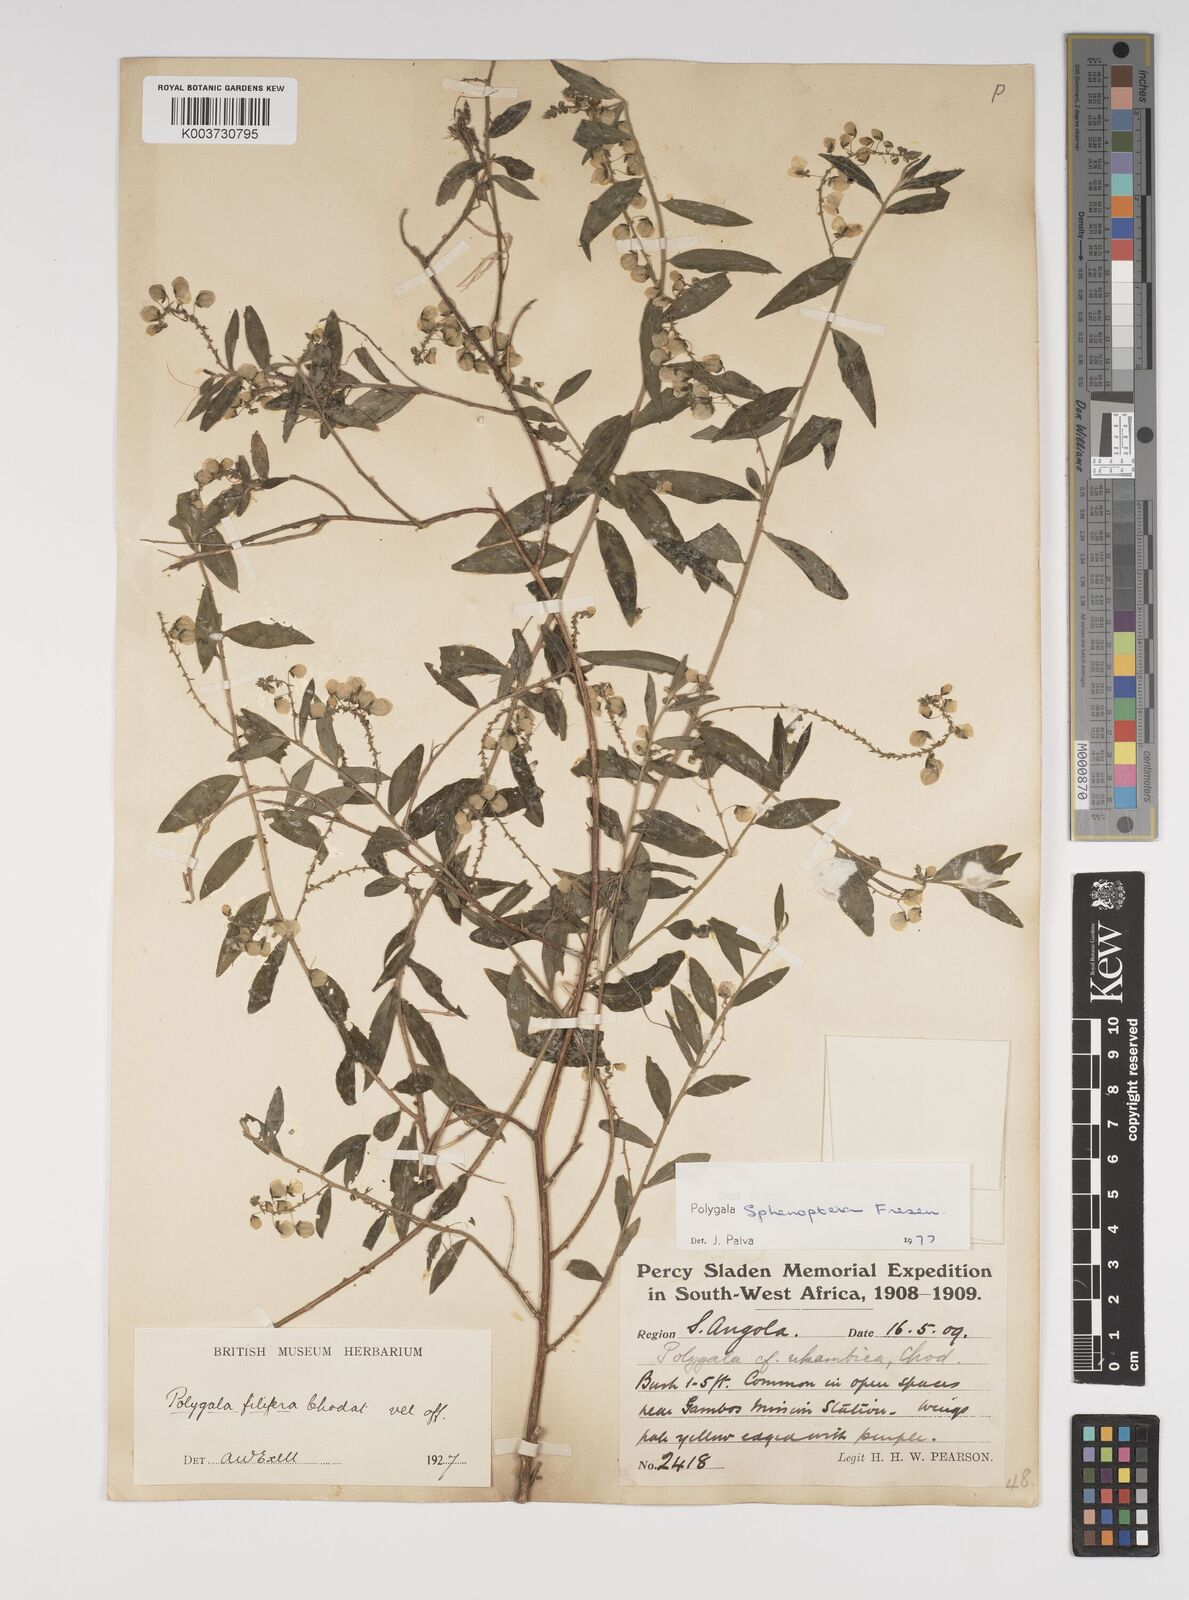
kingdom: Plantae
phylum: Tracheophyta
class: Magnoliopsida
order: Fabales
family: Polygalaceae
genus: Polygala
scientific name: Polygala sphenoptera
